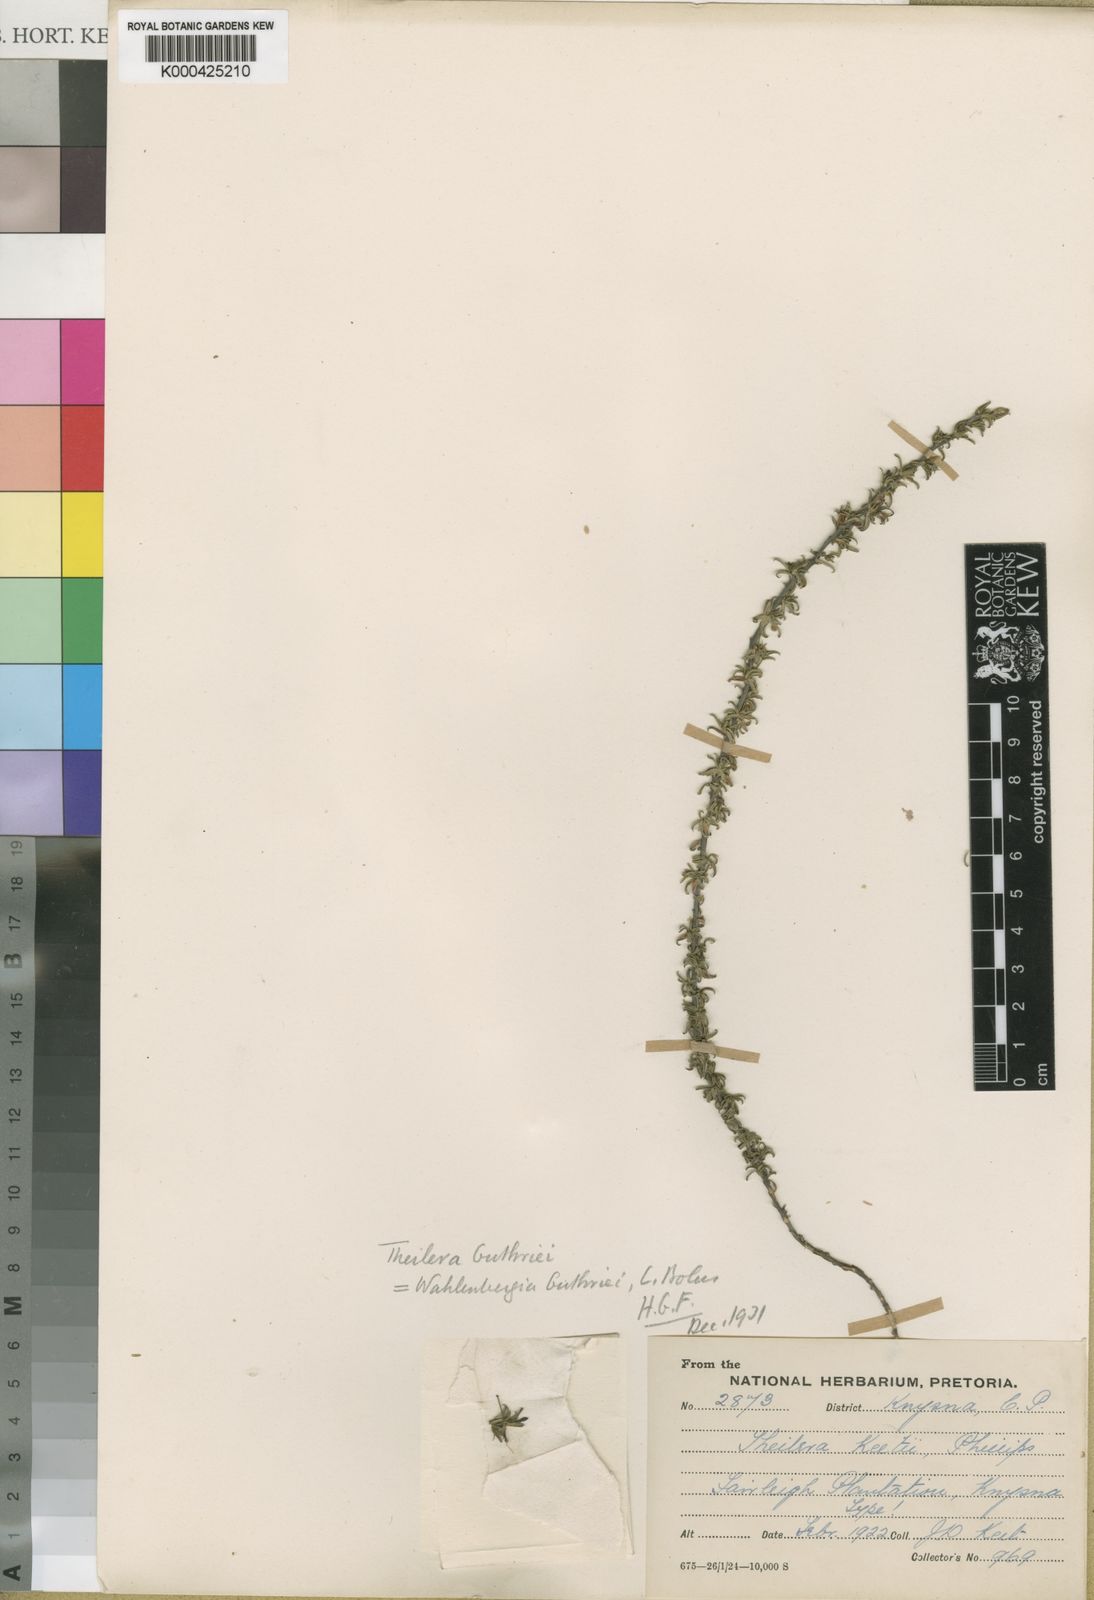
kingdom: Plantae
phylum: Tracheophyta
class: Magnoliopsida
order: Asterales
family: Campanulaceae
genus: Theilera
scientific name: Theilera guthriei
